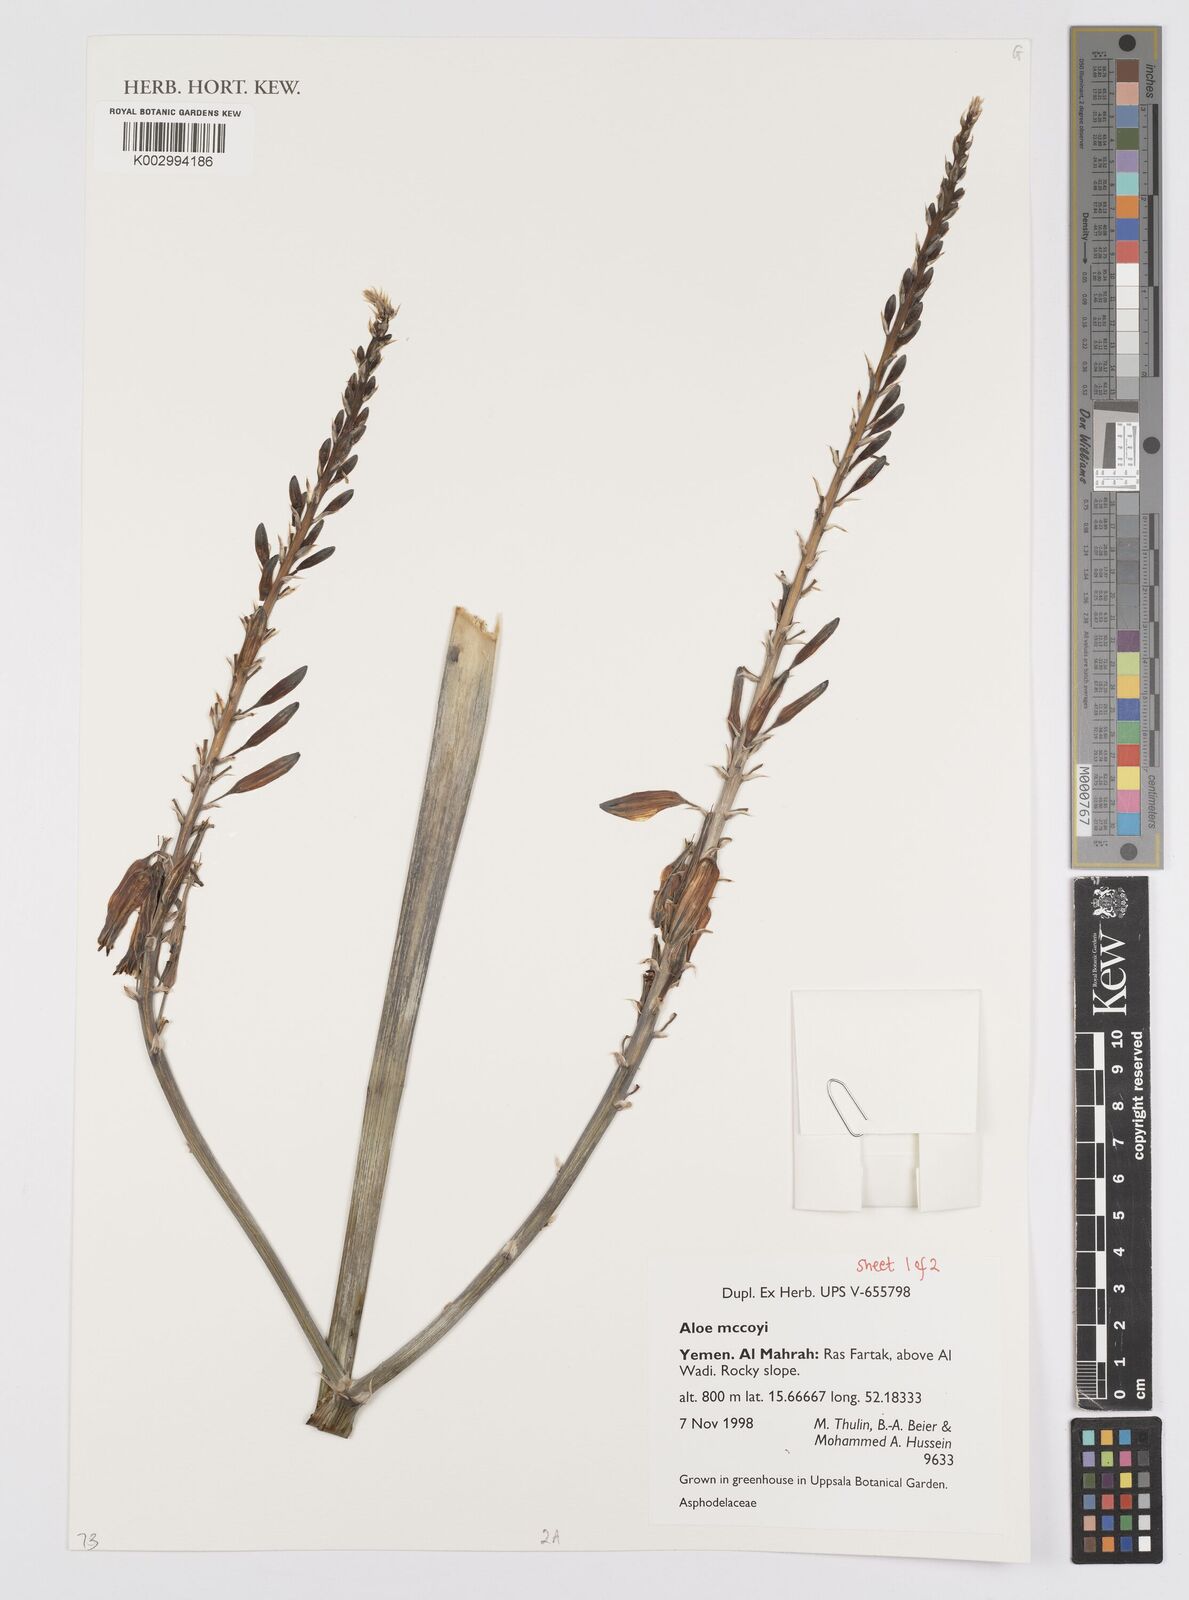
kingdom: Plantae
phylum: Tracheophyta
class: Liliopsida
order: Asparagales
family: Asphodelaceae
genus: Aloe
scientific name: Aloe mccoyi
